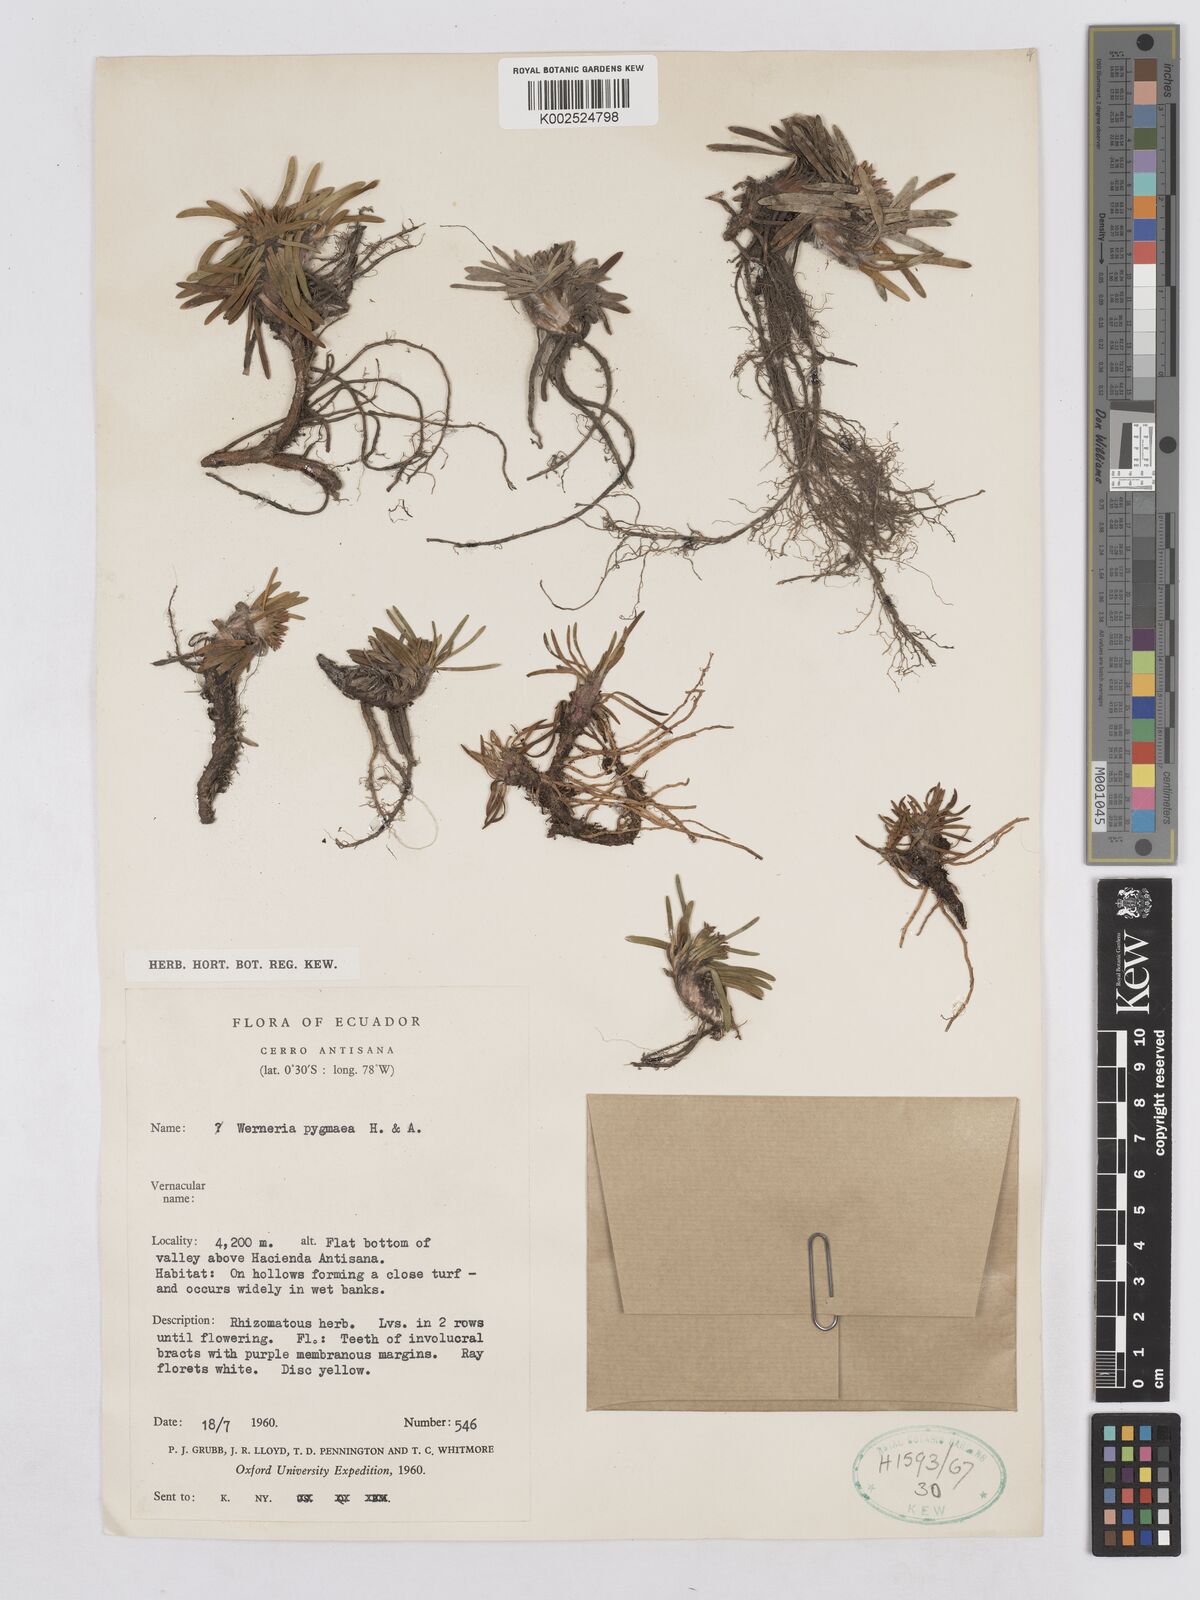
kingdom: Plantae
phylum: Tracheophyta
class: Magnoliopsida
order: Asterales
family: Asteraceae
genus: Rockhausenia
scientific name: Rockhausenia pygmaea
